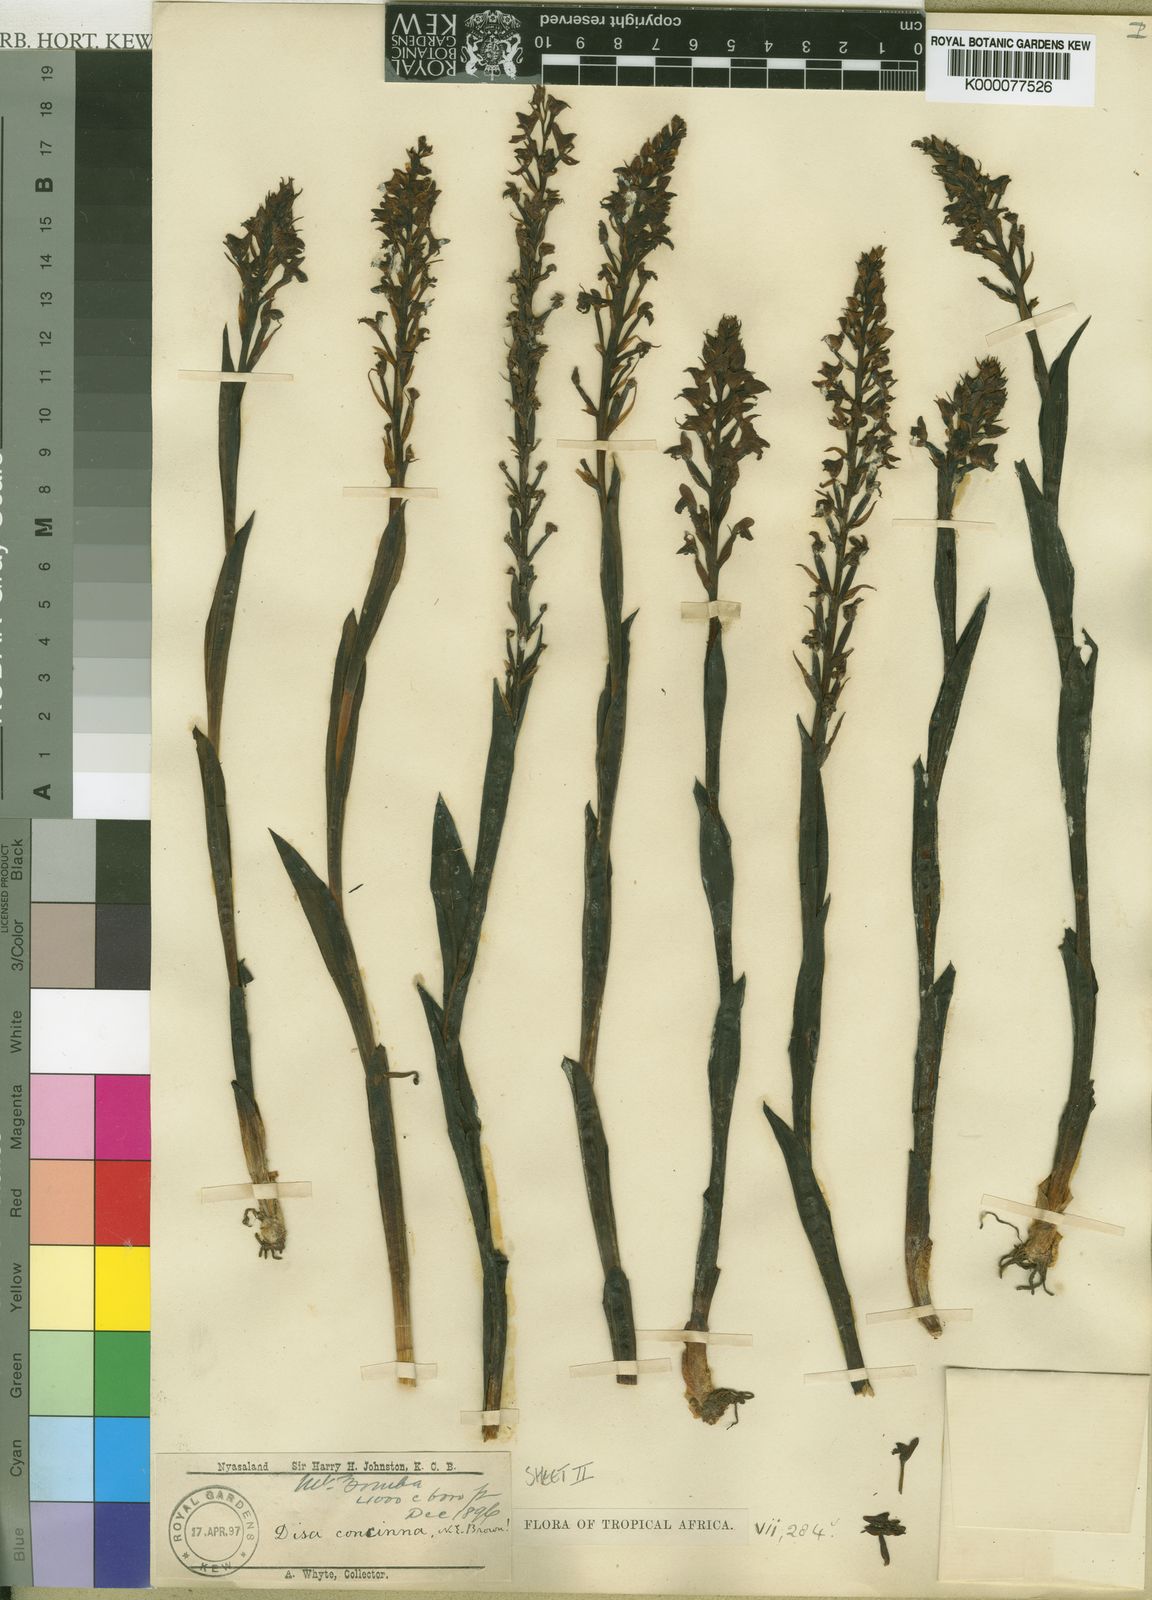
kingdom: Plantae
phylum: Tracheophyta
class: Liliopsida
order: Asparagales
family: Orchidaceae
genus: Disa
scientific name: Disa aconitoides
